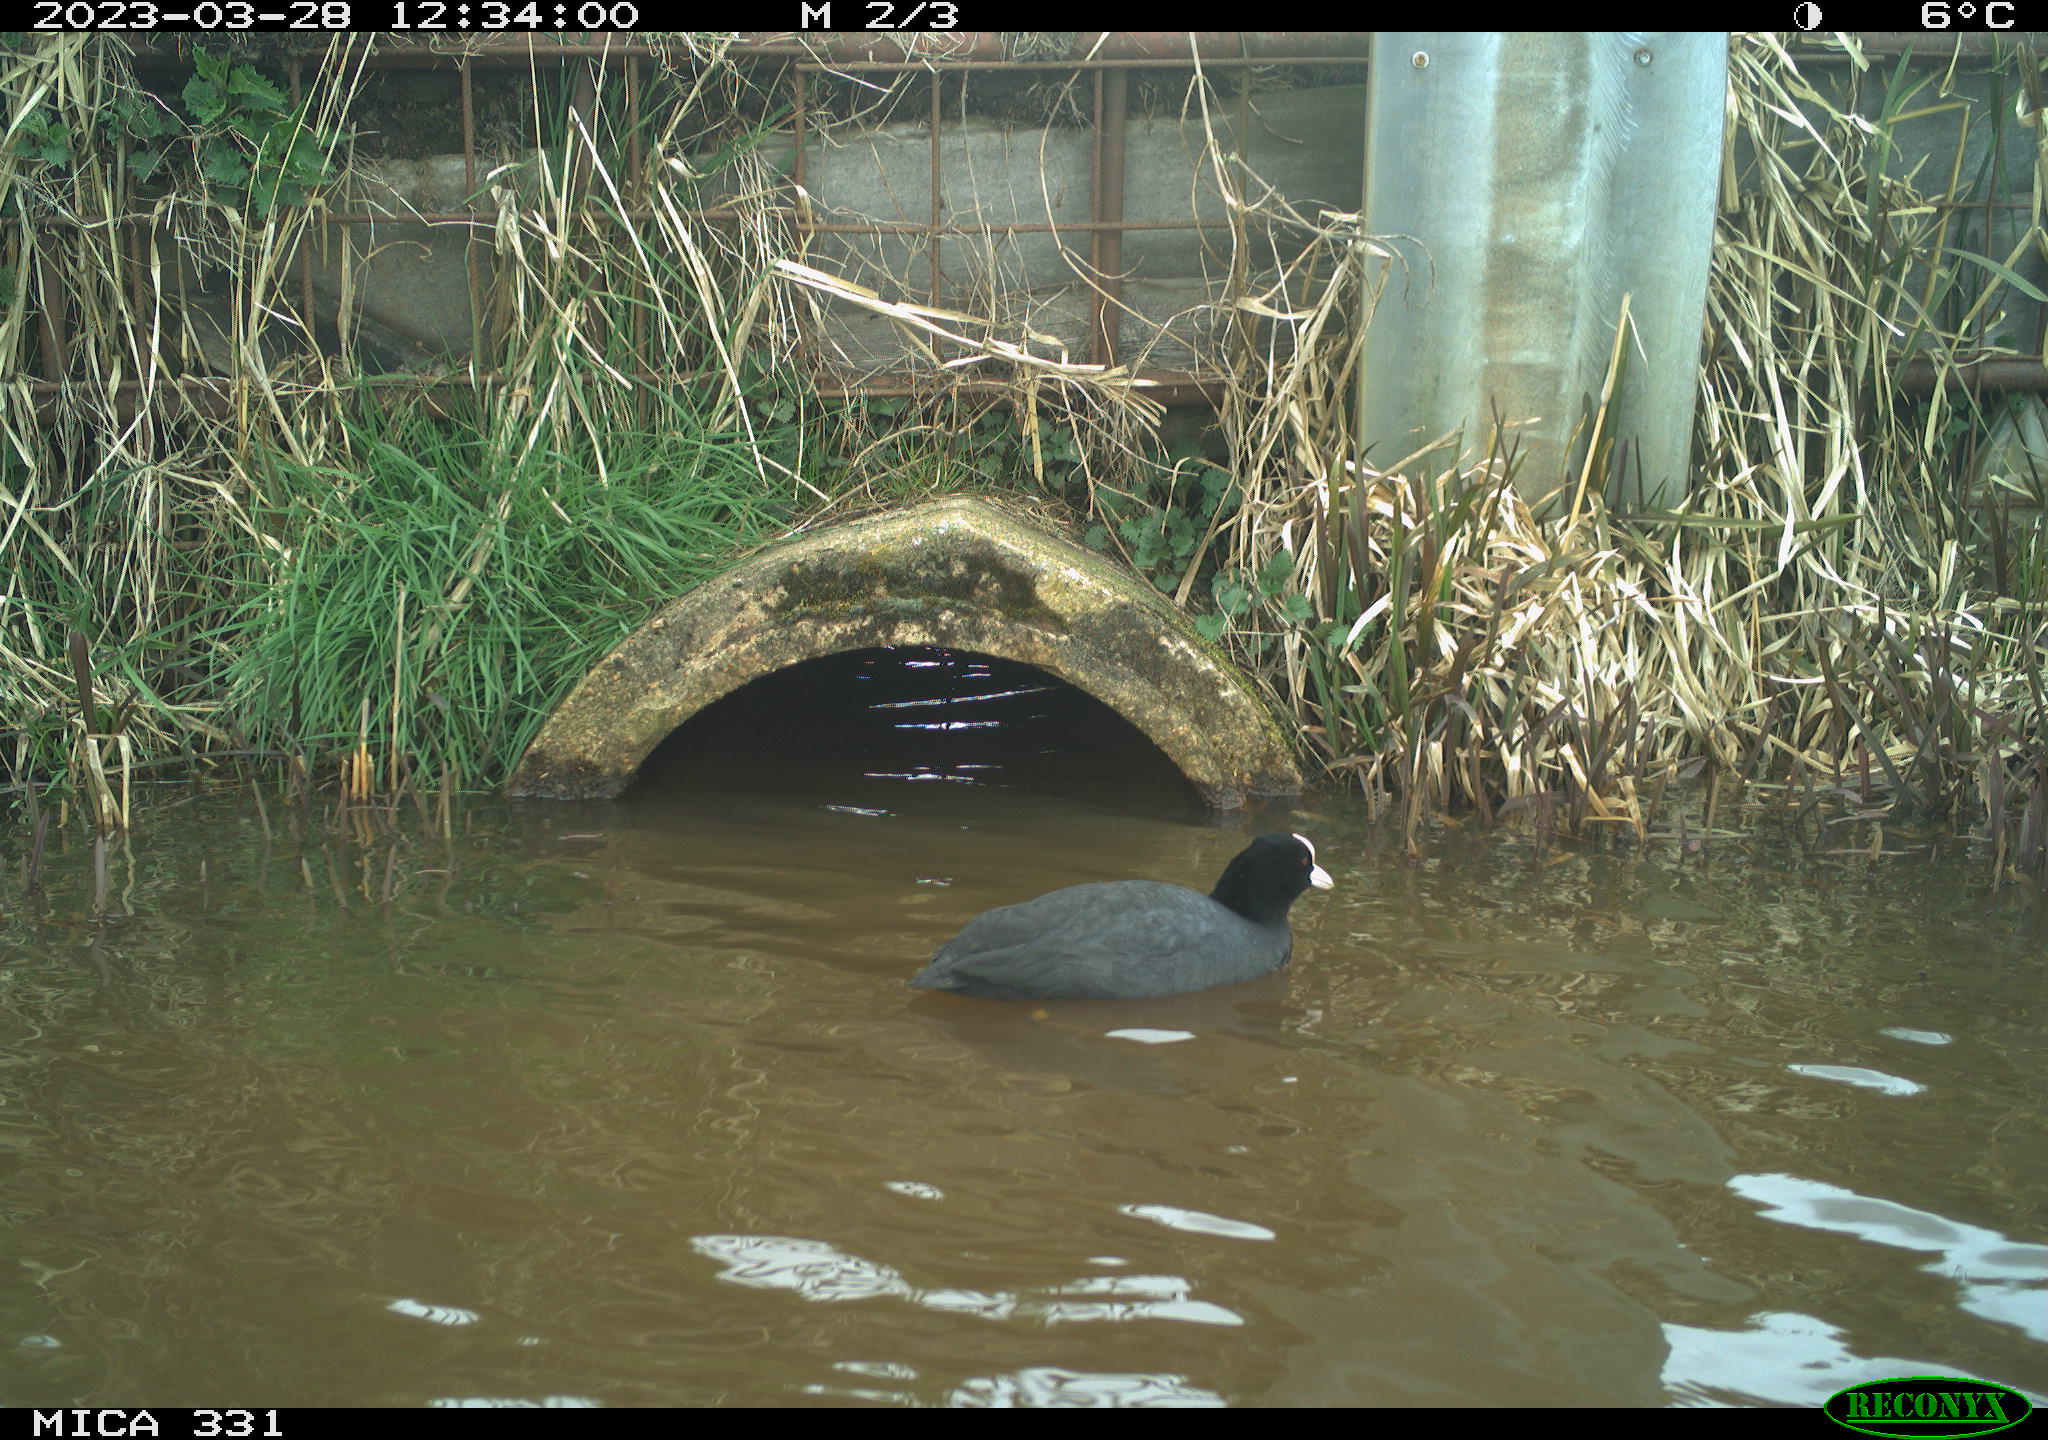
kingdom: Animalia
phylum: Chordata
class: Aves
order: Gruiformes
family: Rallidae
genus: Fulica
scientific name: Fulica atra
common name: Eurasian coot
